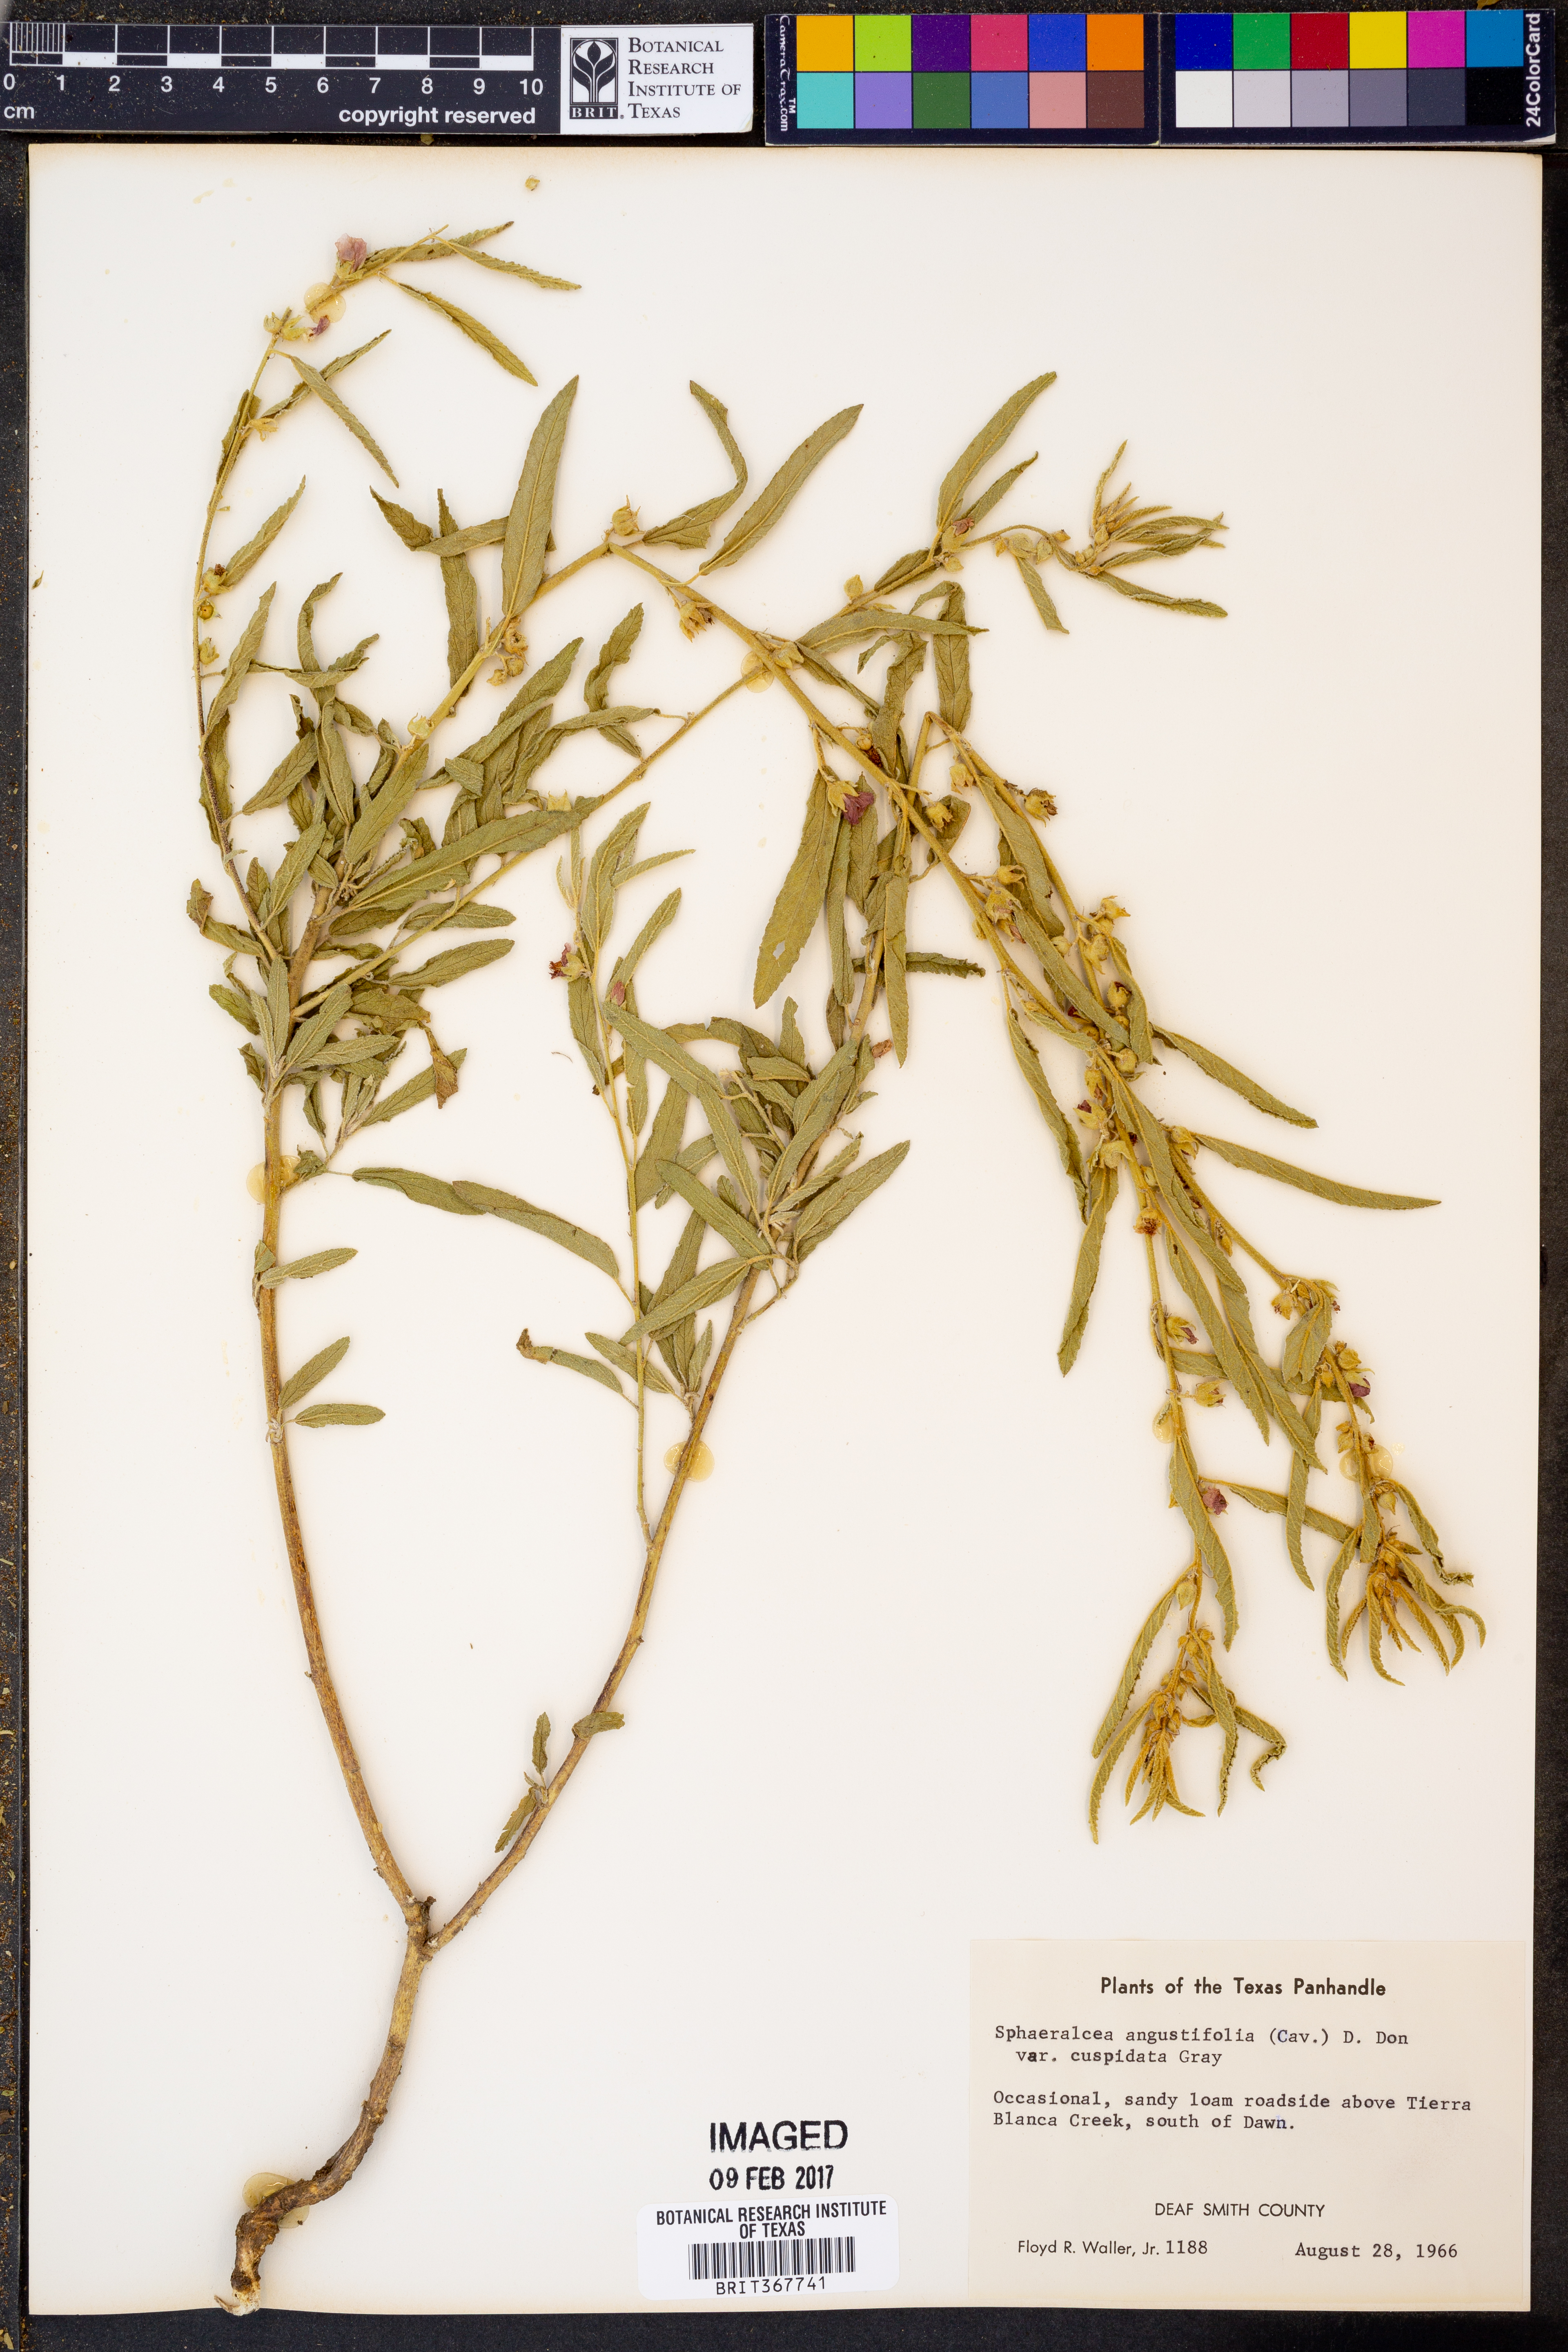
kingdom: Plantae
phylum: Tracheophyta
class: Magnoliopsida
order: Malvales
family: Malvaceae
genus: Sphaeralcea
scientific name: Sphaeralcea angustifolia
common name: Copper globe-mallow
